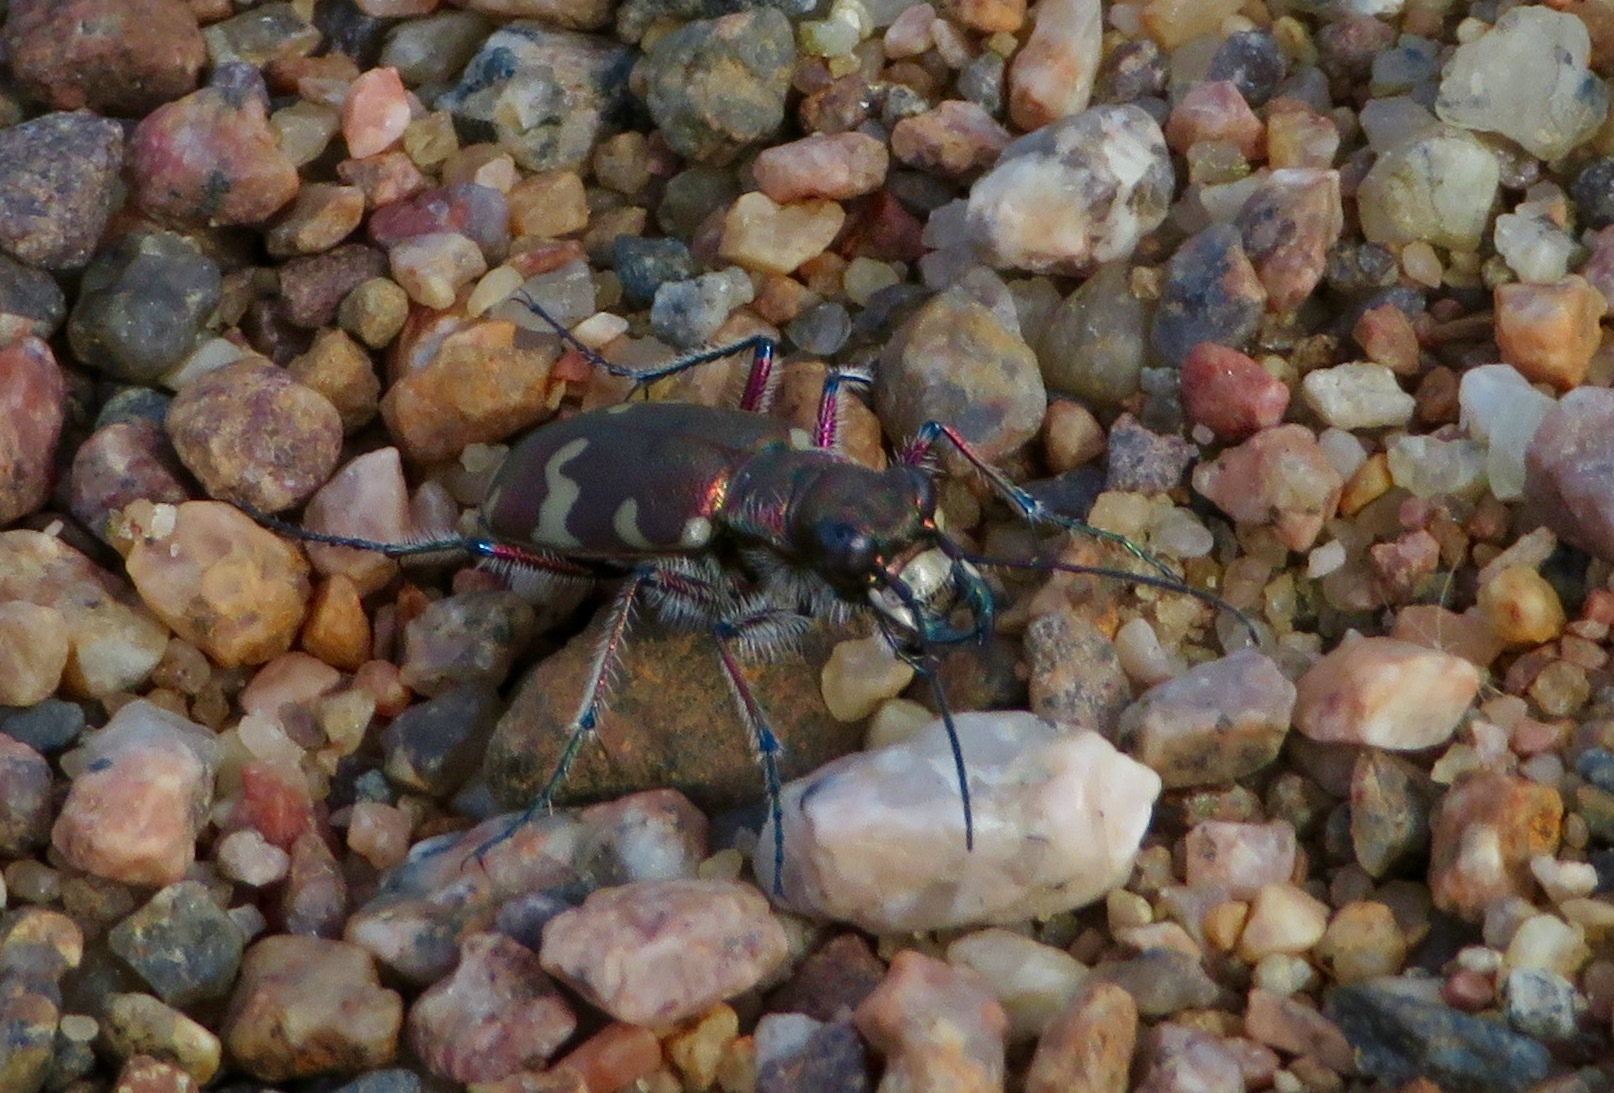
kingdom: Animalia
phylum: Arthropoda
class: Insecta
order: Coleoptera
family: Carabidae
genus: Cicindela
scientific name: Cicindela hybrida
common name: Northern dune tiger beetle
